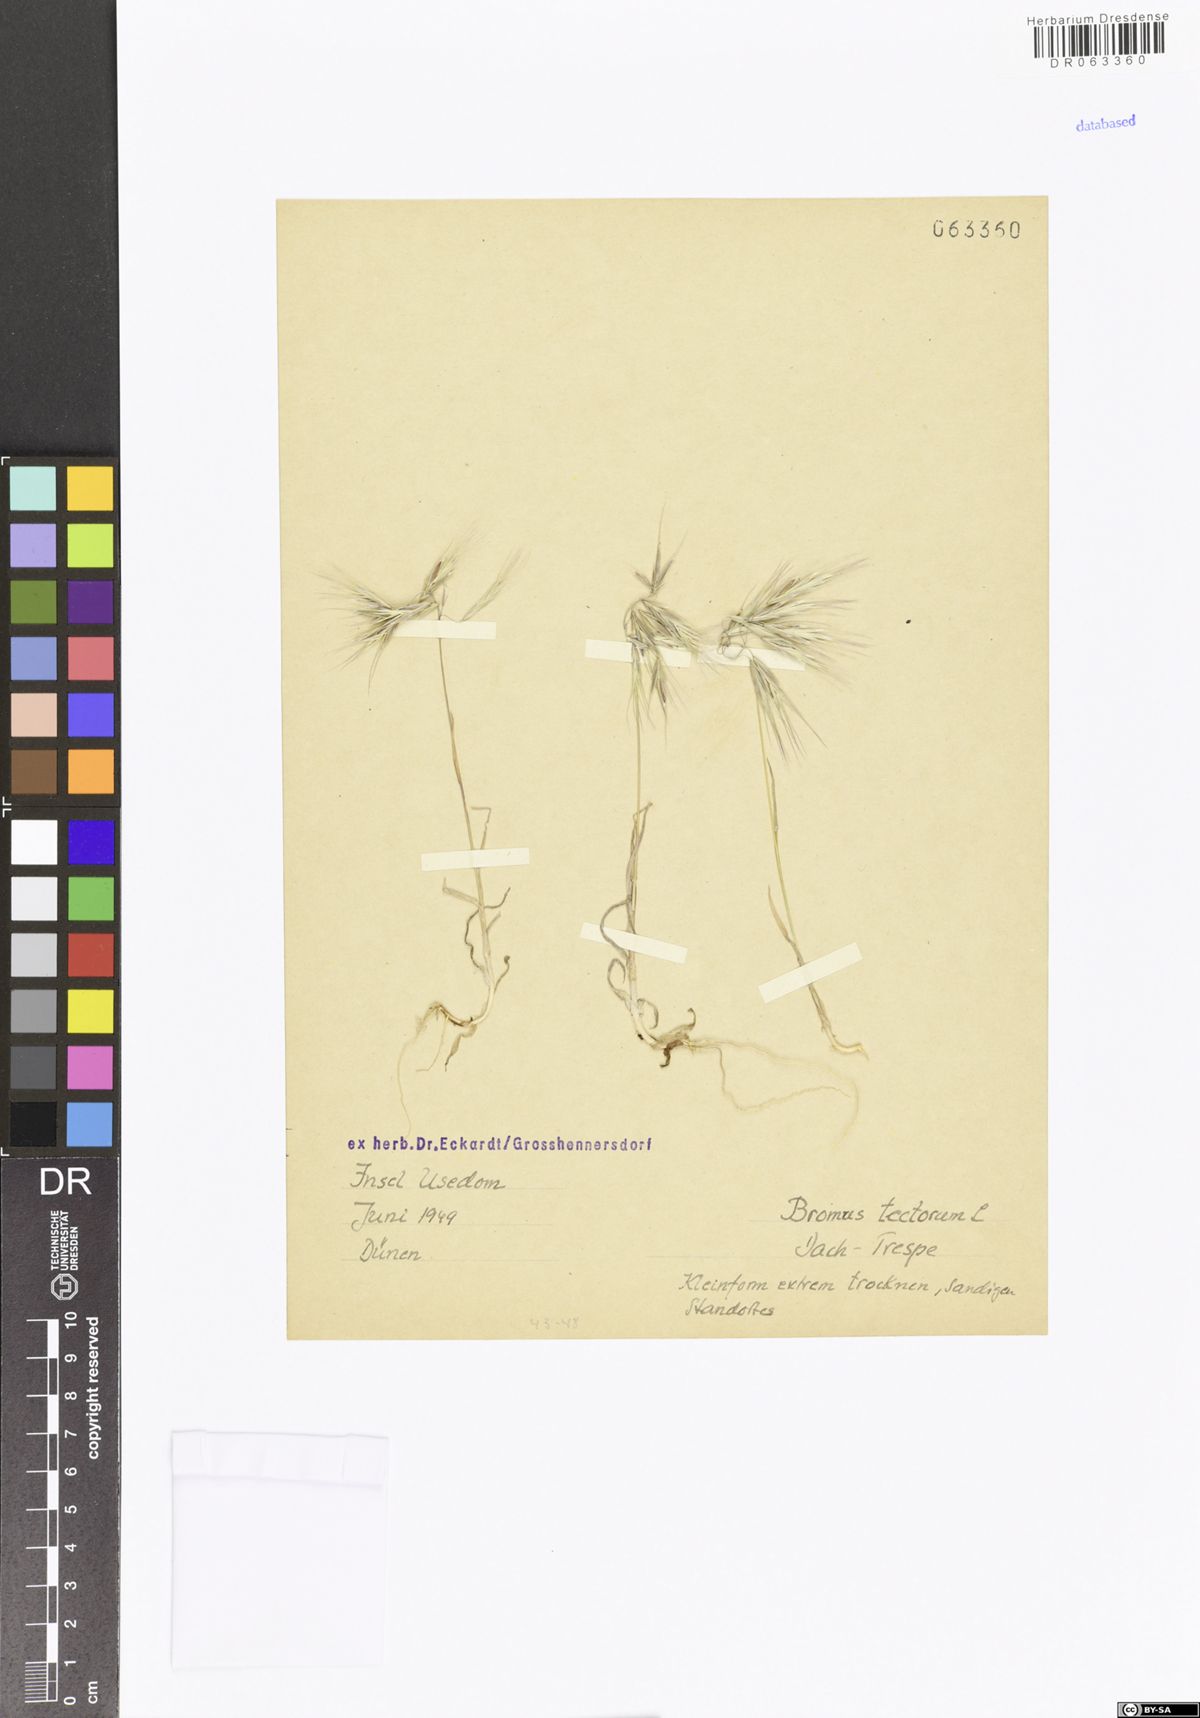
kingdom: Plantae
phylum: Tracheophyta
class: Liliopsida
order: Poales
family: Poaceae
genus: Bromus
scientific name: Bromus tectorum
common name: Cheatgrass
